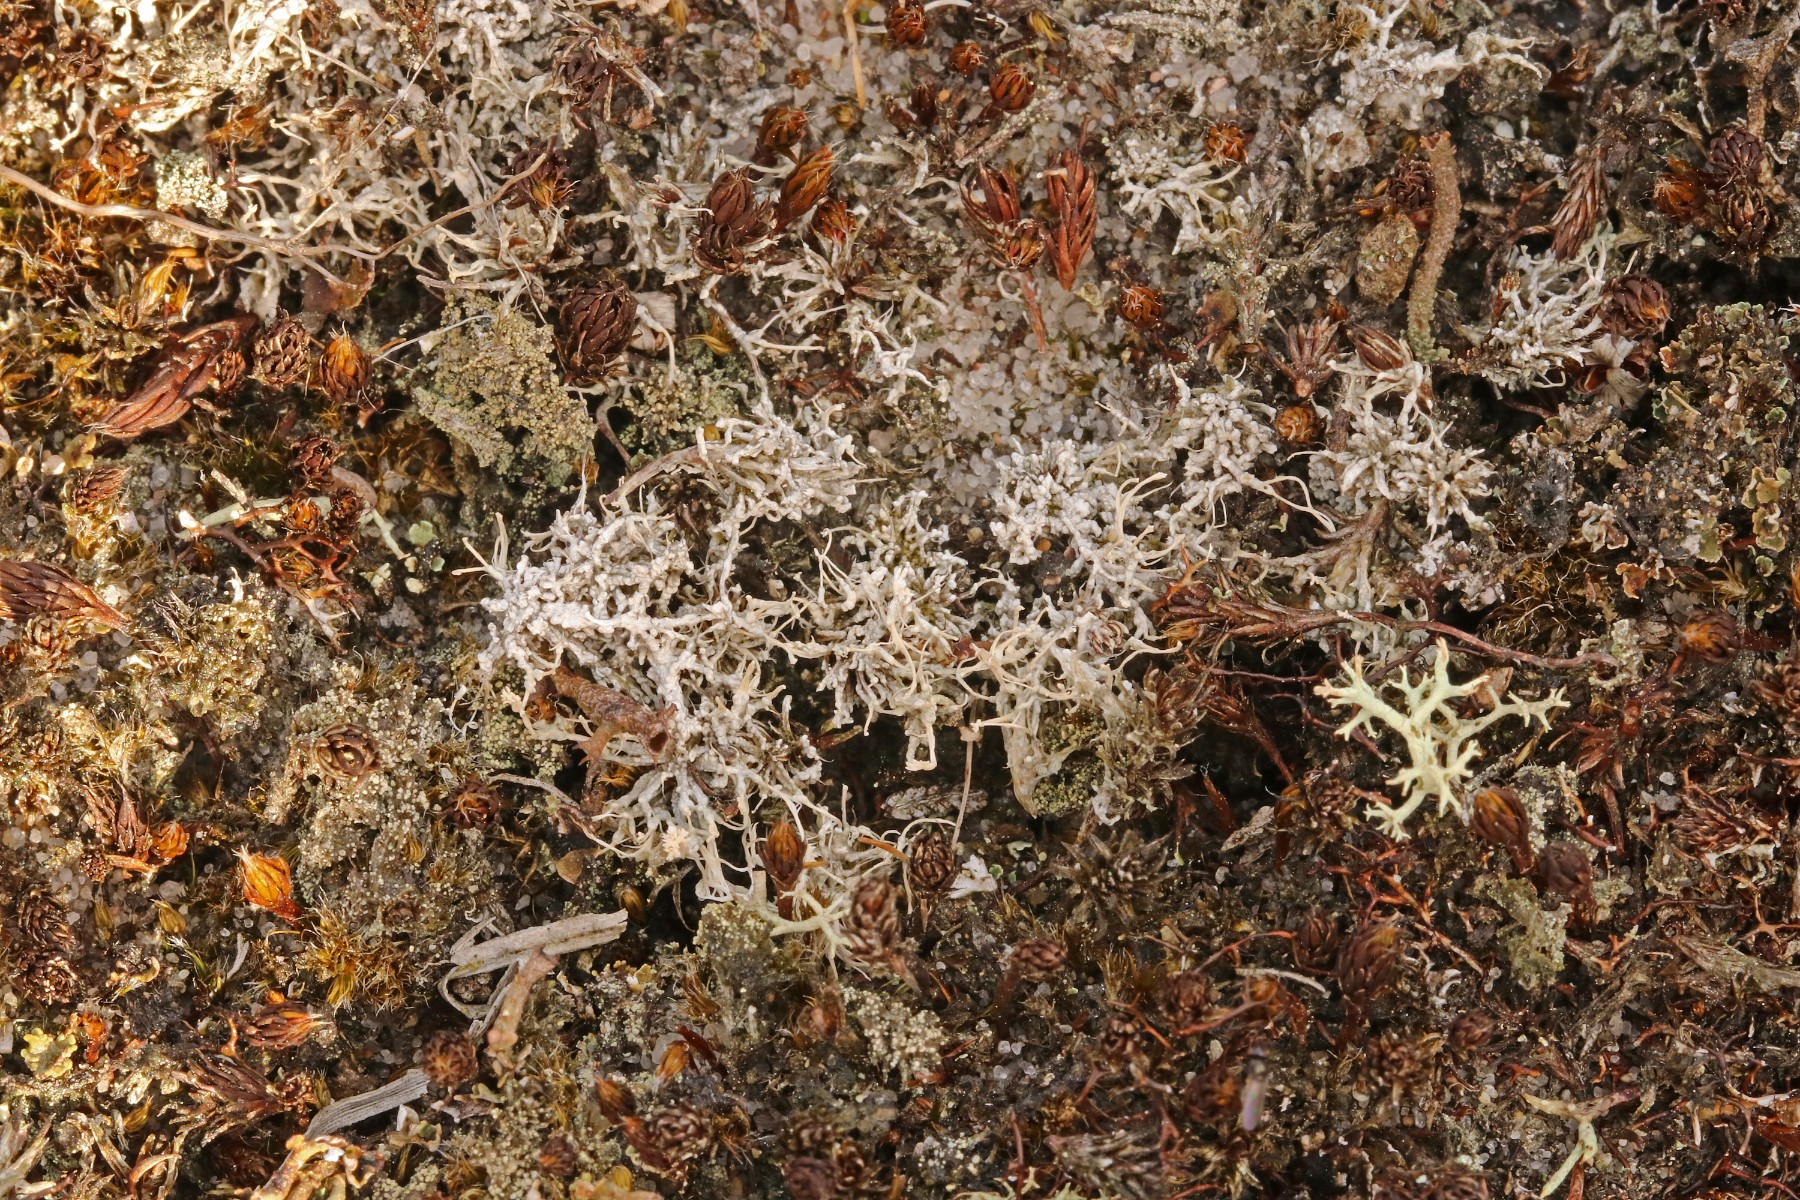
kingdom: Fungi
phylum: Ascomycota
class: Lecanoromycetes
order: Pertusariales
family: Ochrolechiaceae
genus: Ochrolechia
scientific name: Ochrolechia frigida
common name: fjeld-blegskivelav
